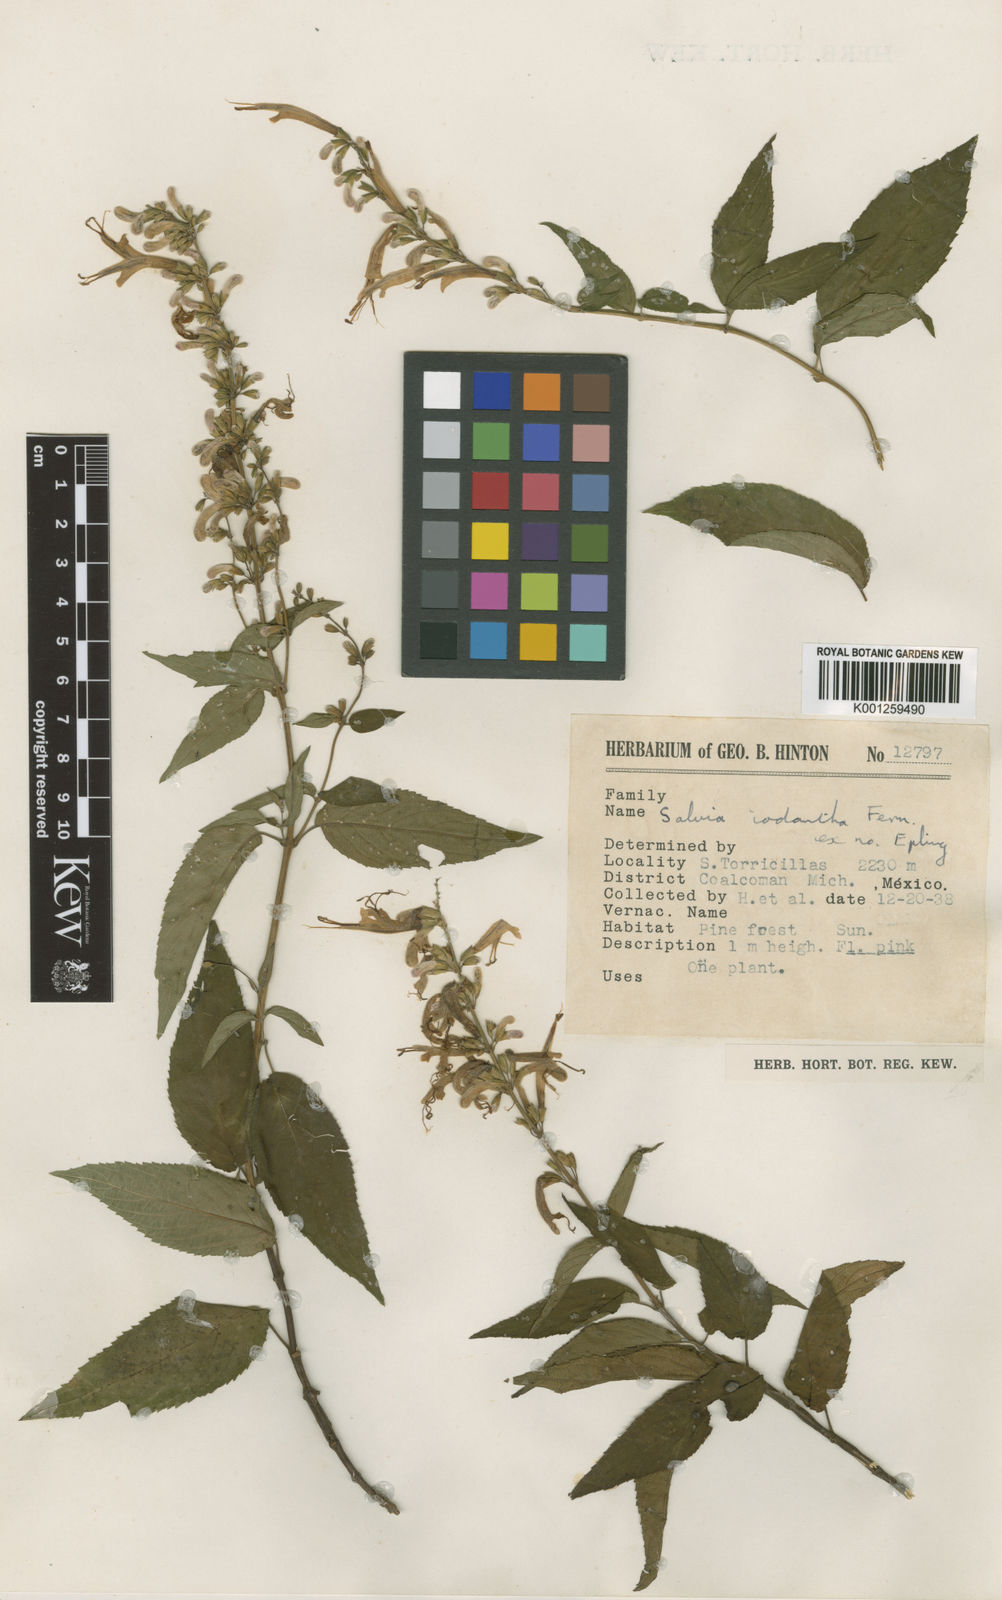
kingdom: Plantae
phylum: Tracheophyta
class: Magnoliopsida
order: Lamiales
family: Lamiaceae
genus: Salvia
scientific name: Salvia iodantha
